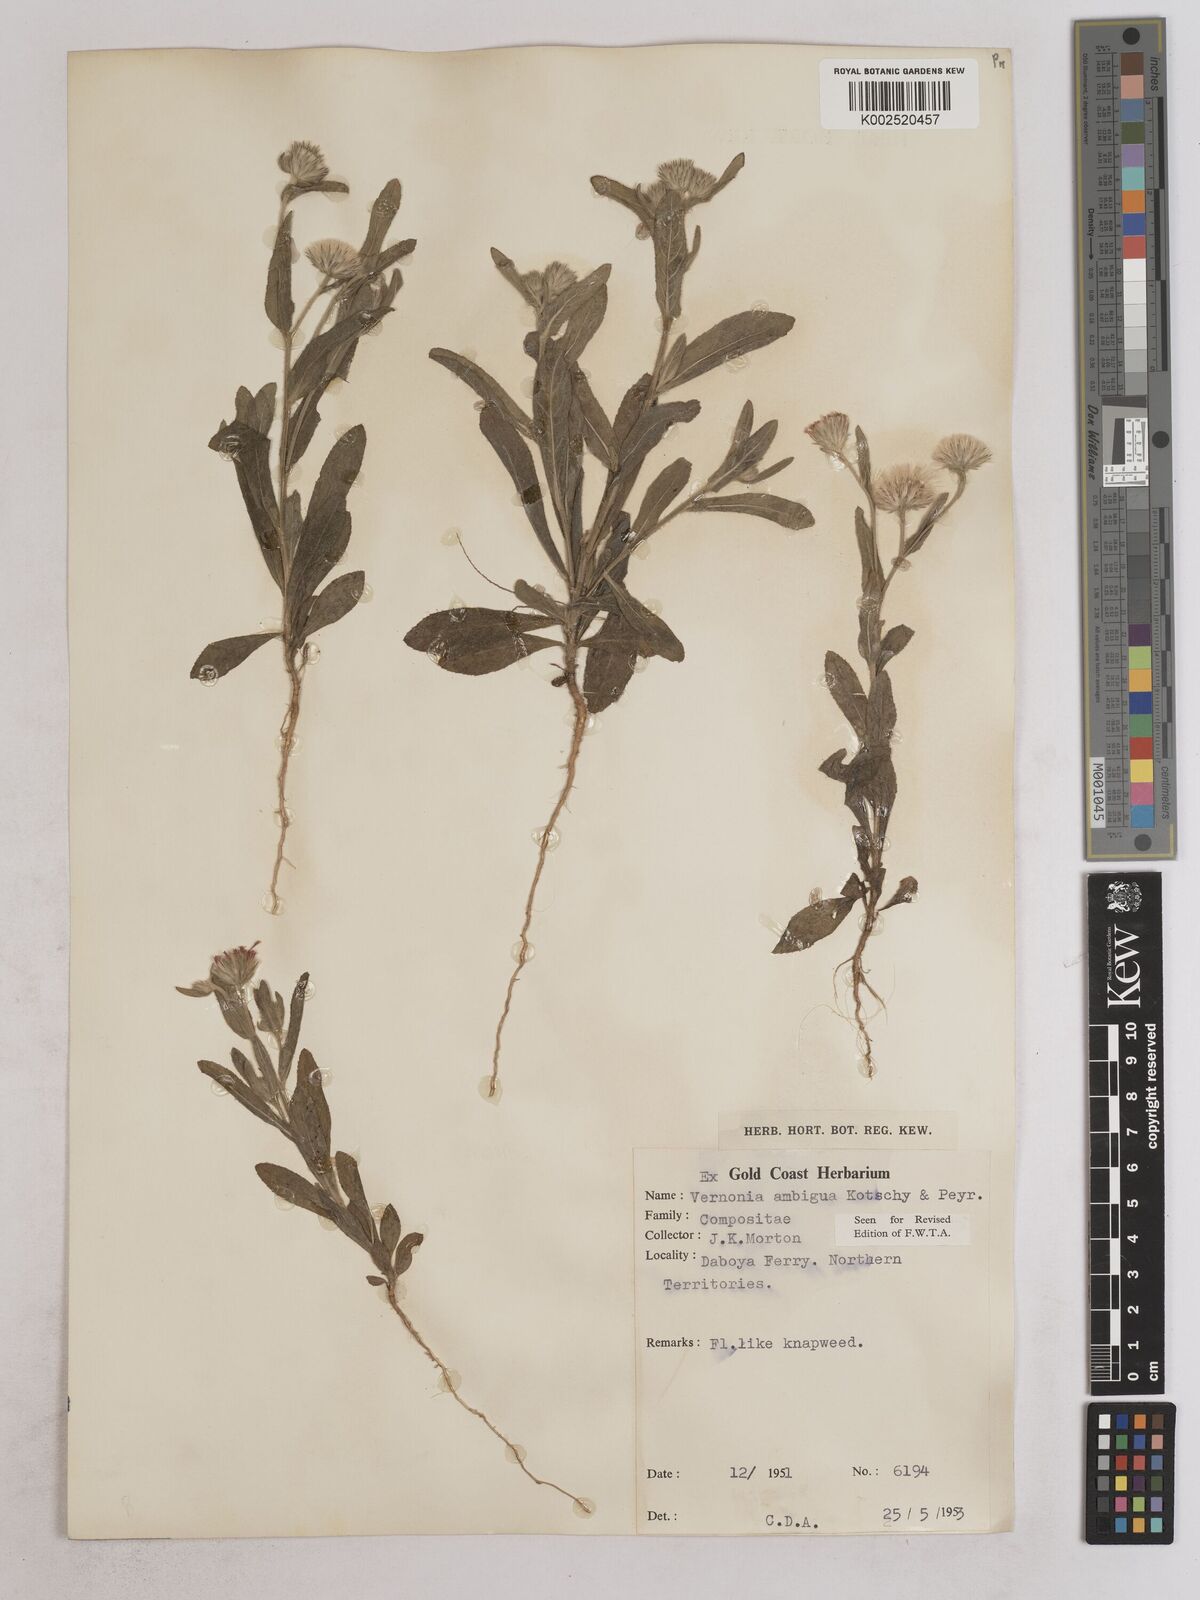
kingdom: Plantae
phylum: Tracheophyta
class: Magnoliopsida
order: Asterales
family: Asteraceae
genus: Vernoniastrum
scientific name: Vernoniastrum ambiguum
